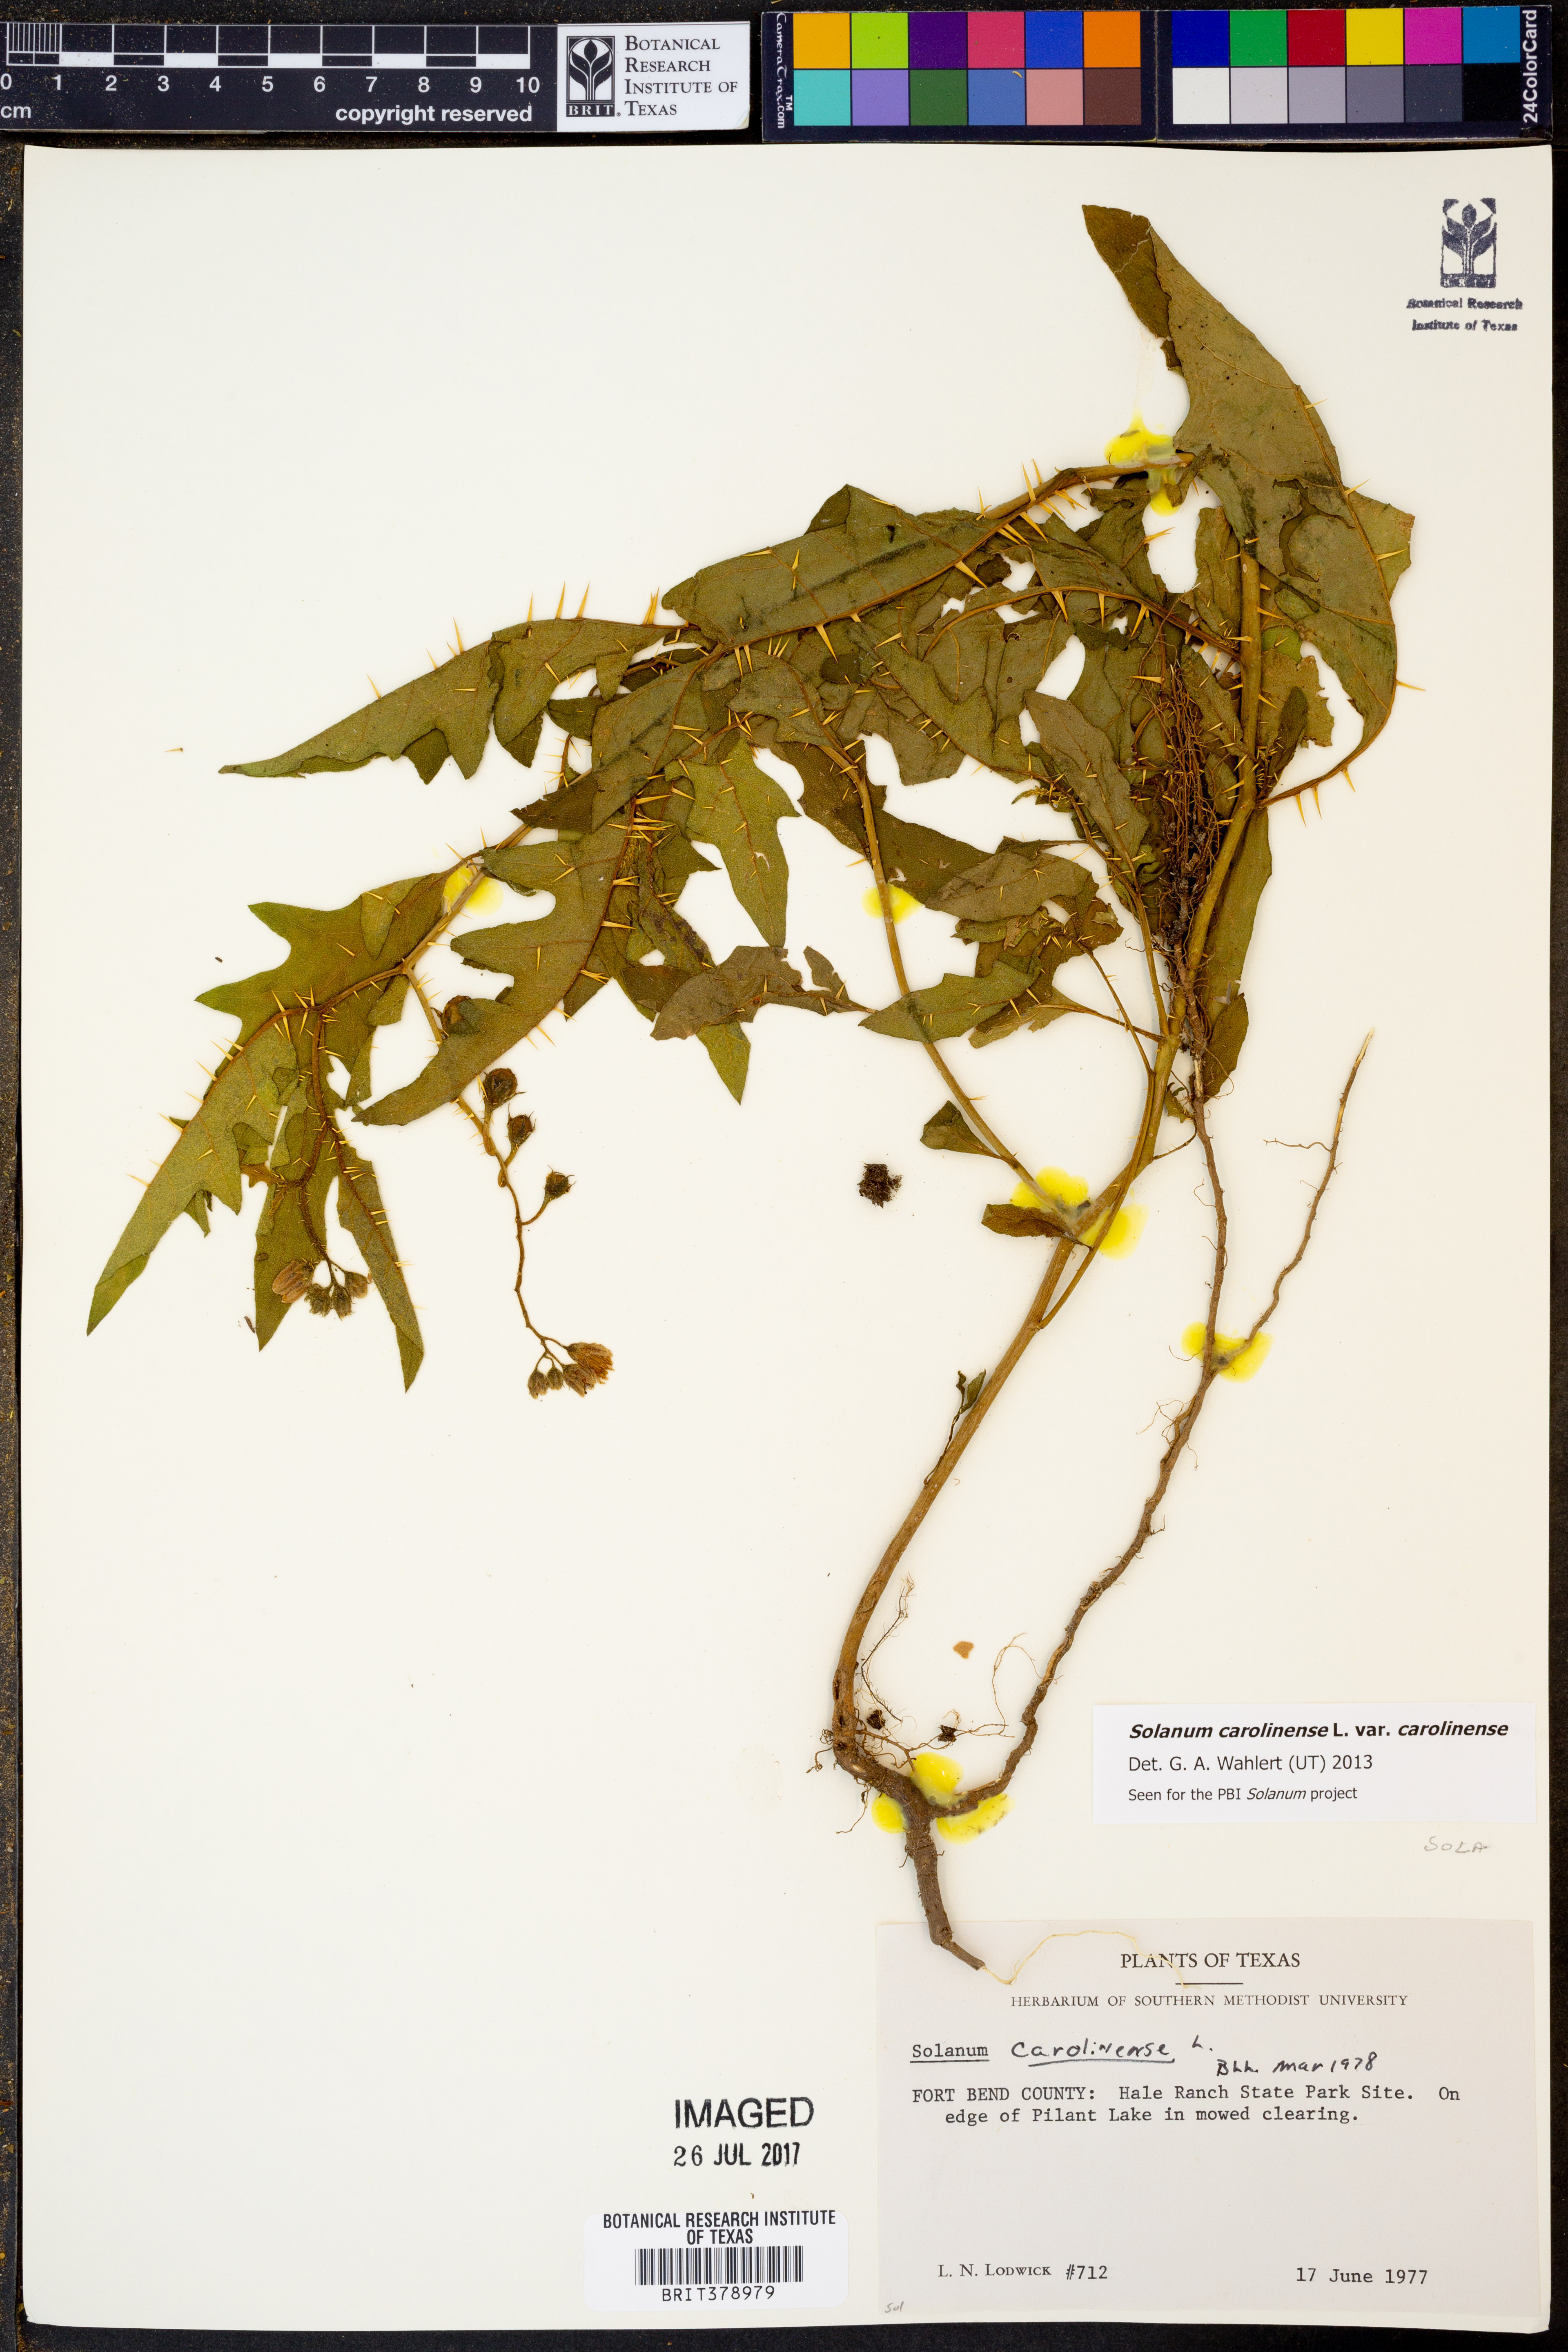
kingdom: Plantae
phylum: Tracheophyta
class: Magnoliopsida
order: Solanales
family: Solanaceae
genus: Solanum
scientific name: Solanum carolinense
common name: Horse-nettle
